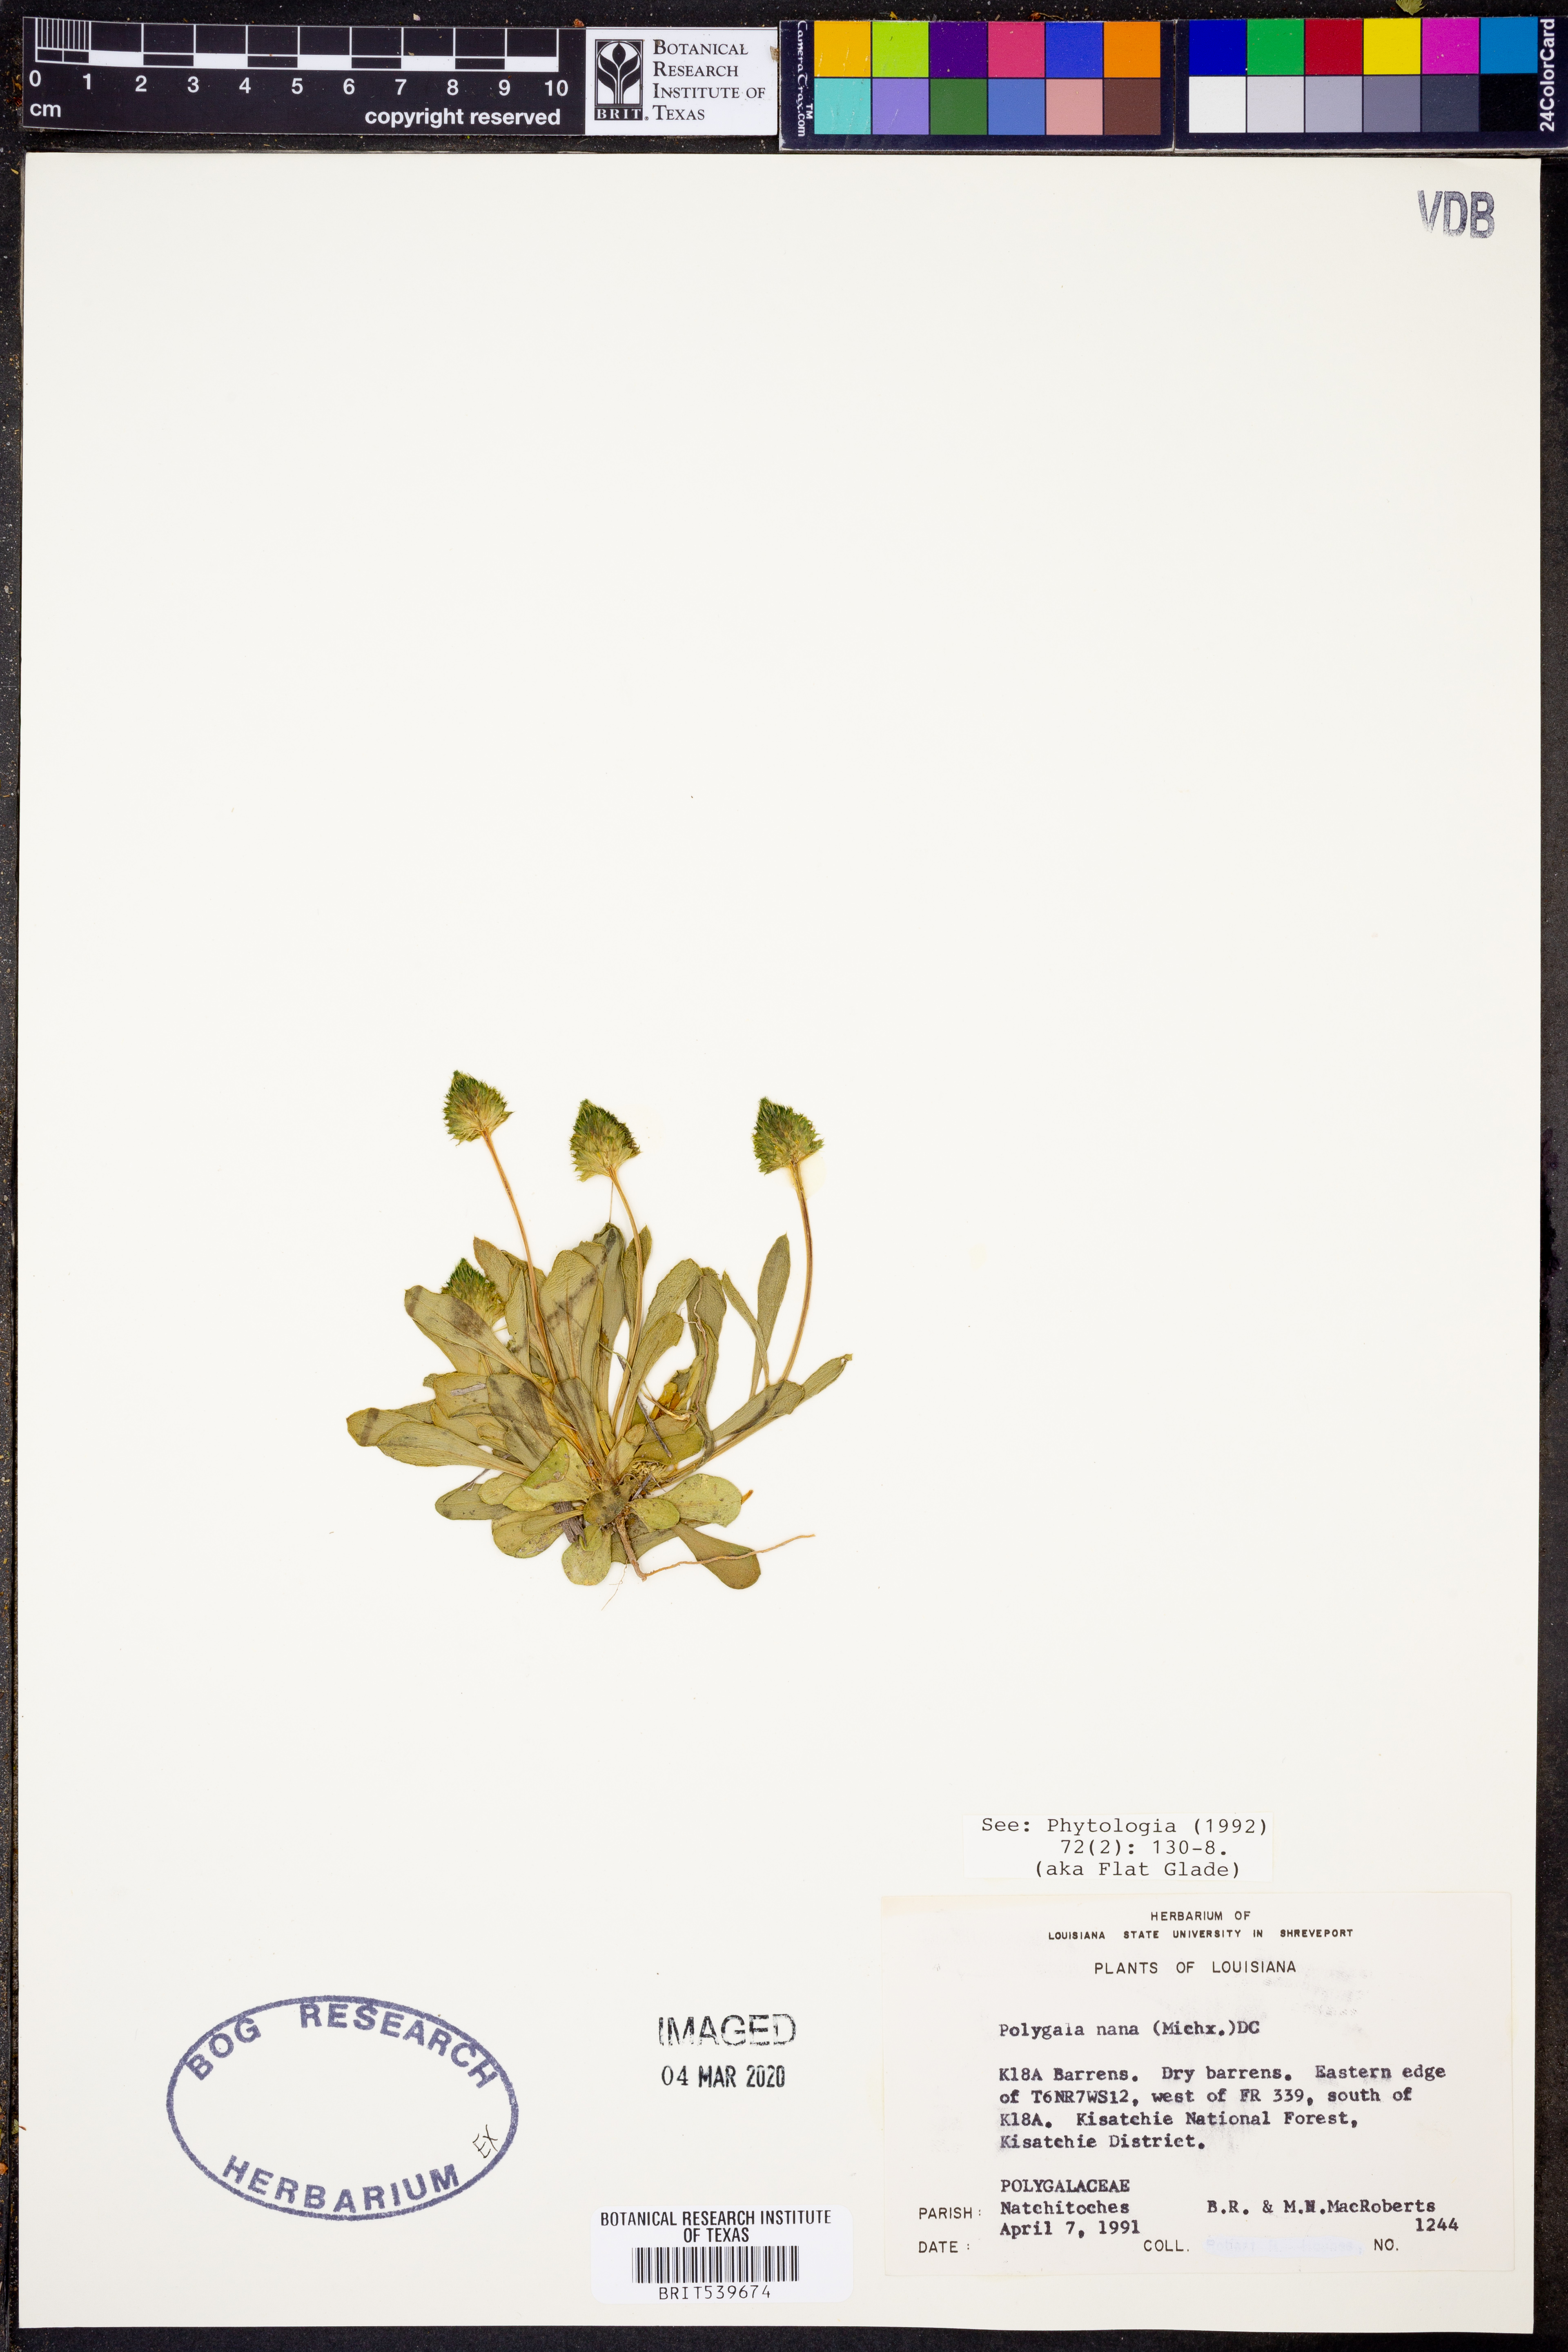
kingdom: Plantae
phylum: Tracheophyta
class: Magnoliopsida
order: Fabales
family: Polygalaceae
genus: Polygala
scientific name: Polygala nana
